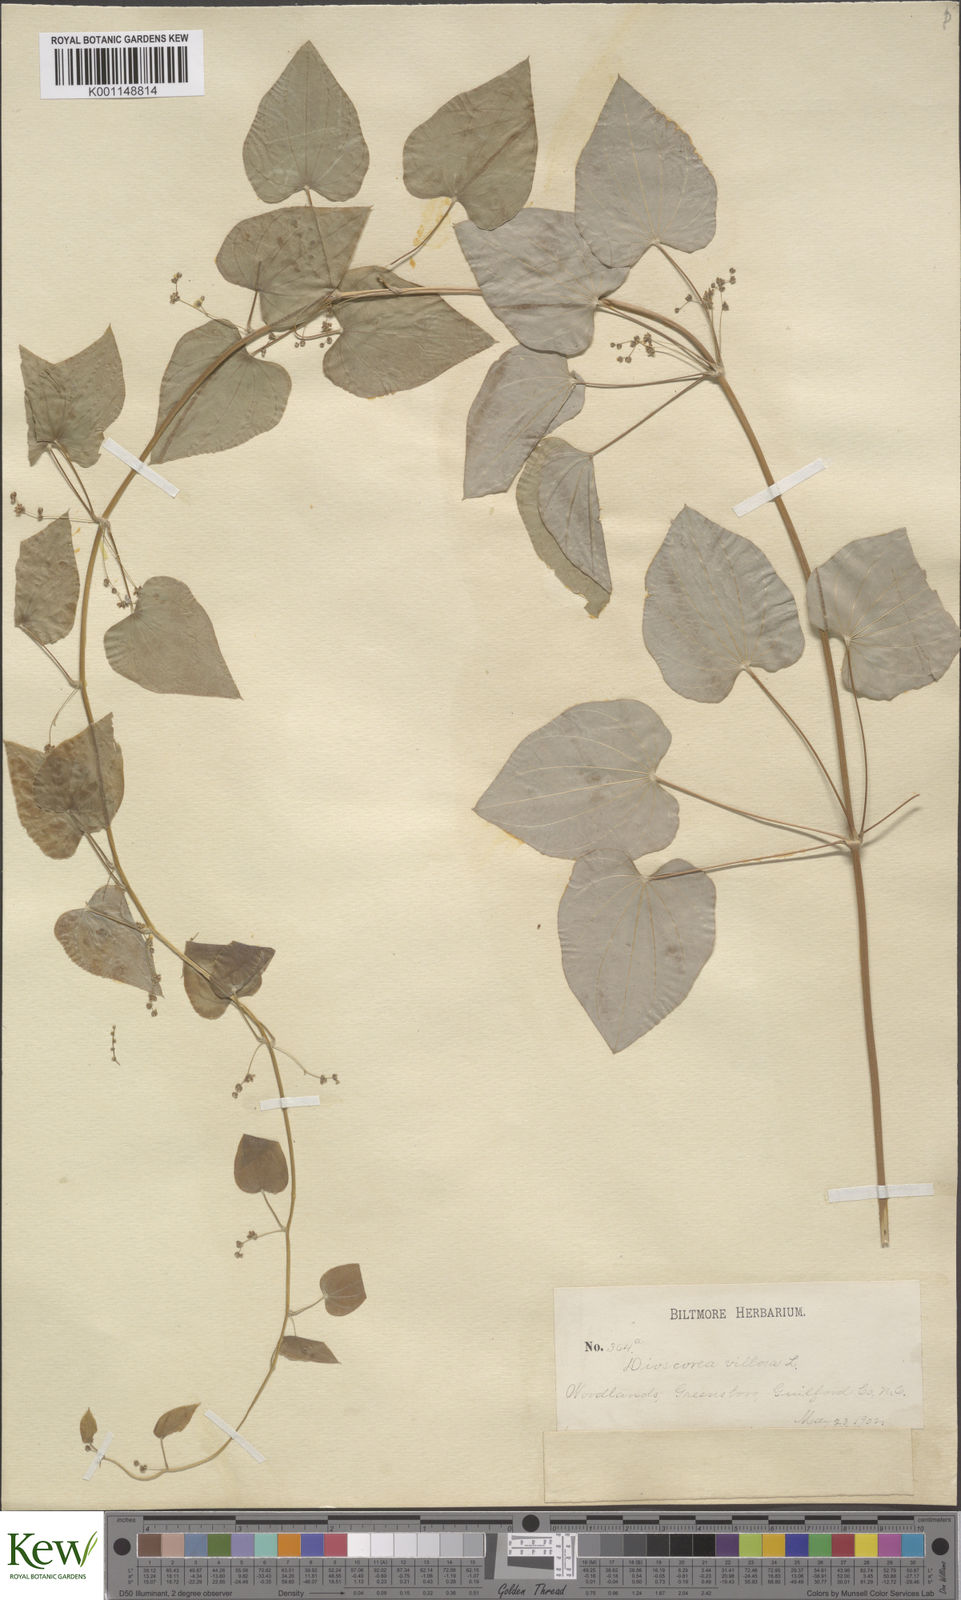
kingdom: Plantae
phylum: Tracheophyta
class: Liliopsida
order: Dioscoreales
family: Dioscoreaceae
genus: Dioscorea
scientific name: Dioscorea villosa
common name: Wild yam
